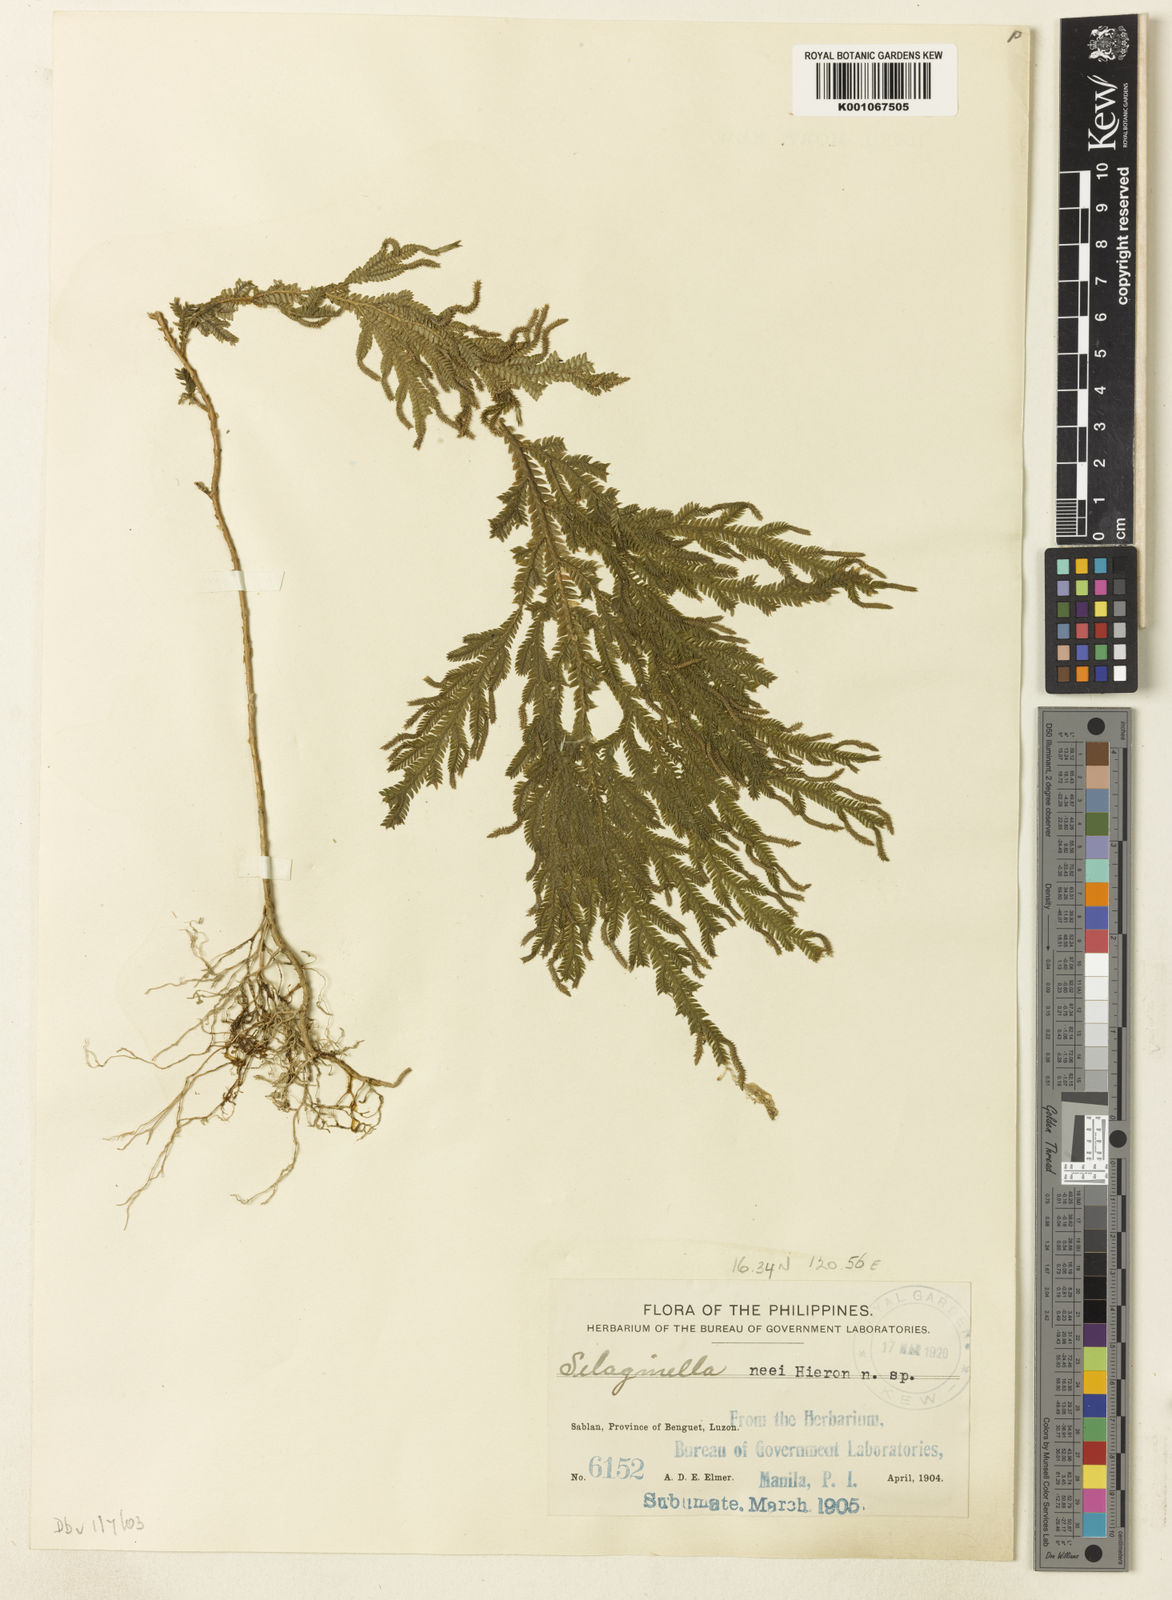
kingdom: Plantae
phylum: Tracheophyta
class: Lycopodiopsida
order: Selaginellales
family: Selaginellaceae
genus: Selaginella
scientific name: Selaginella neei
